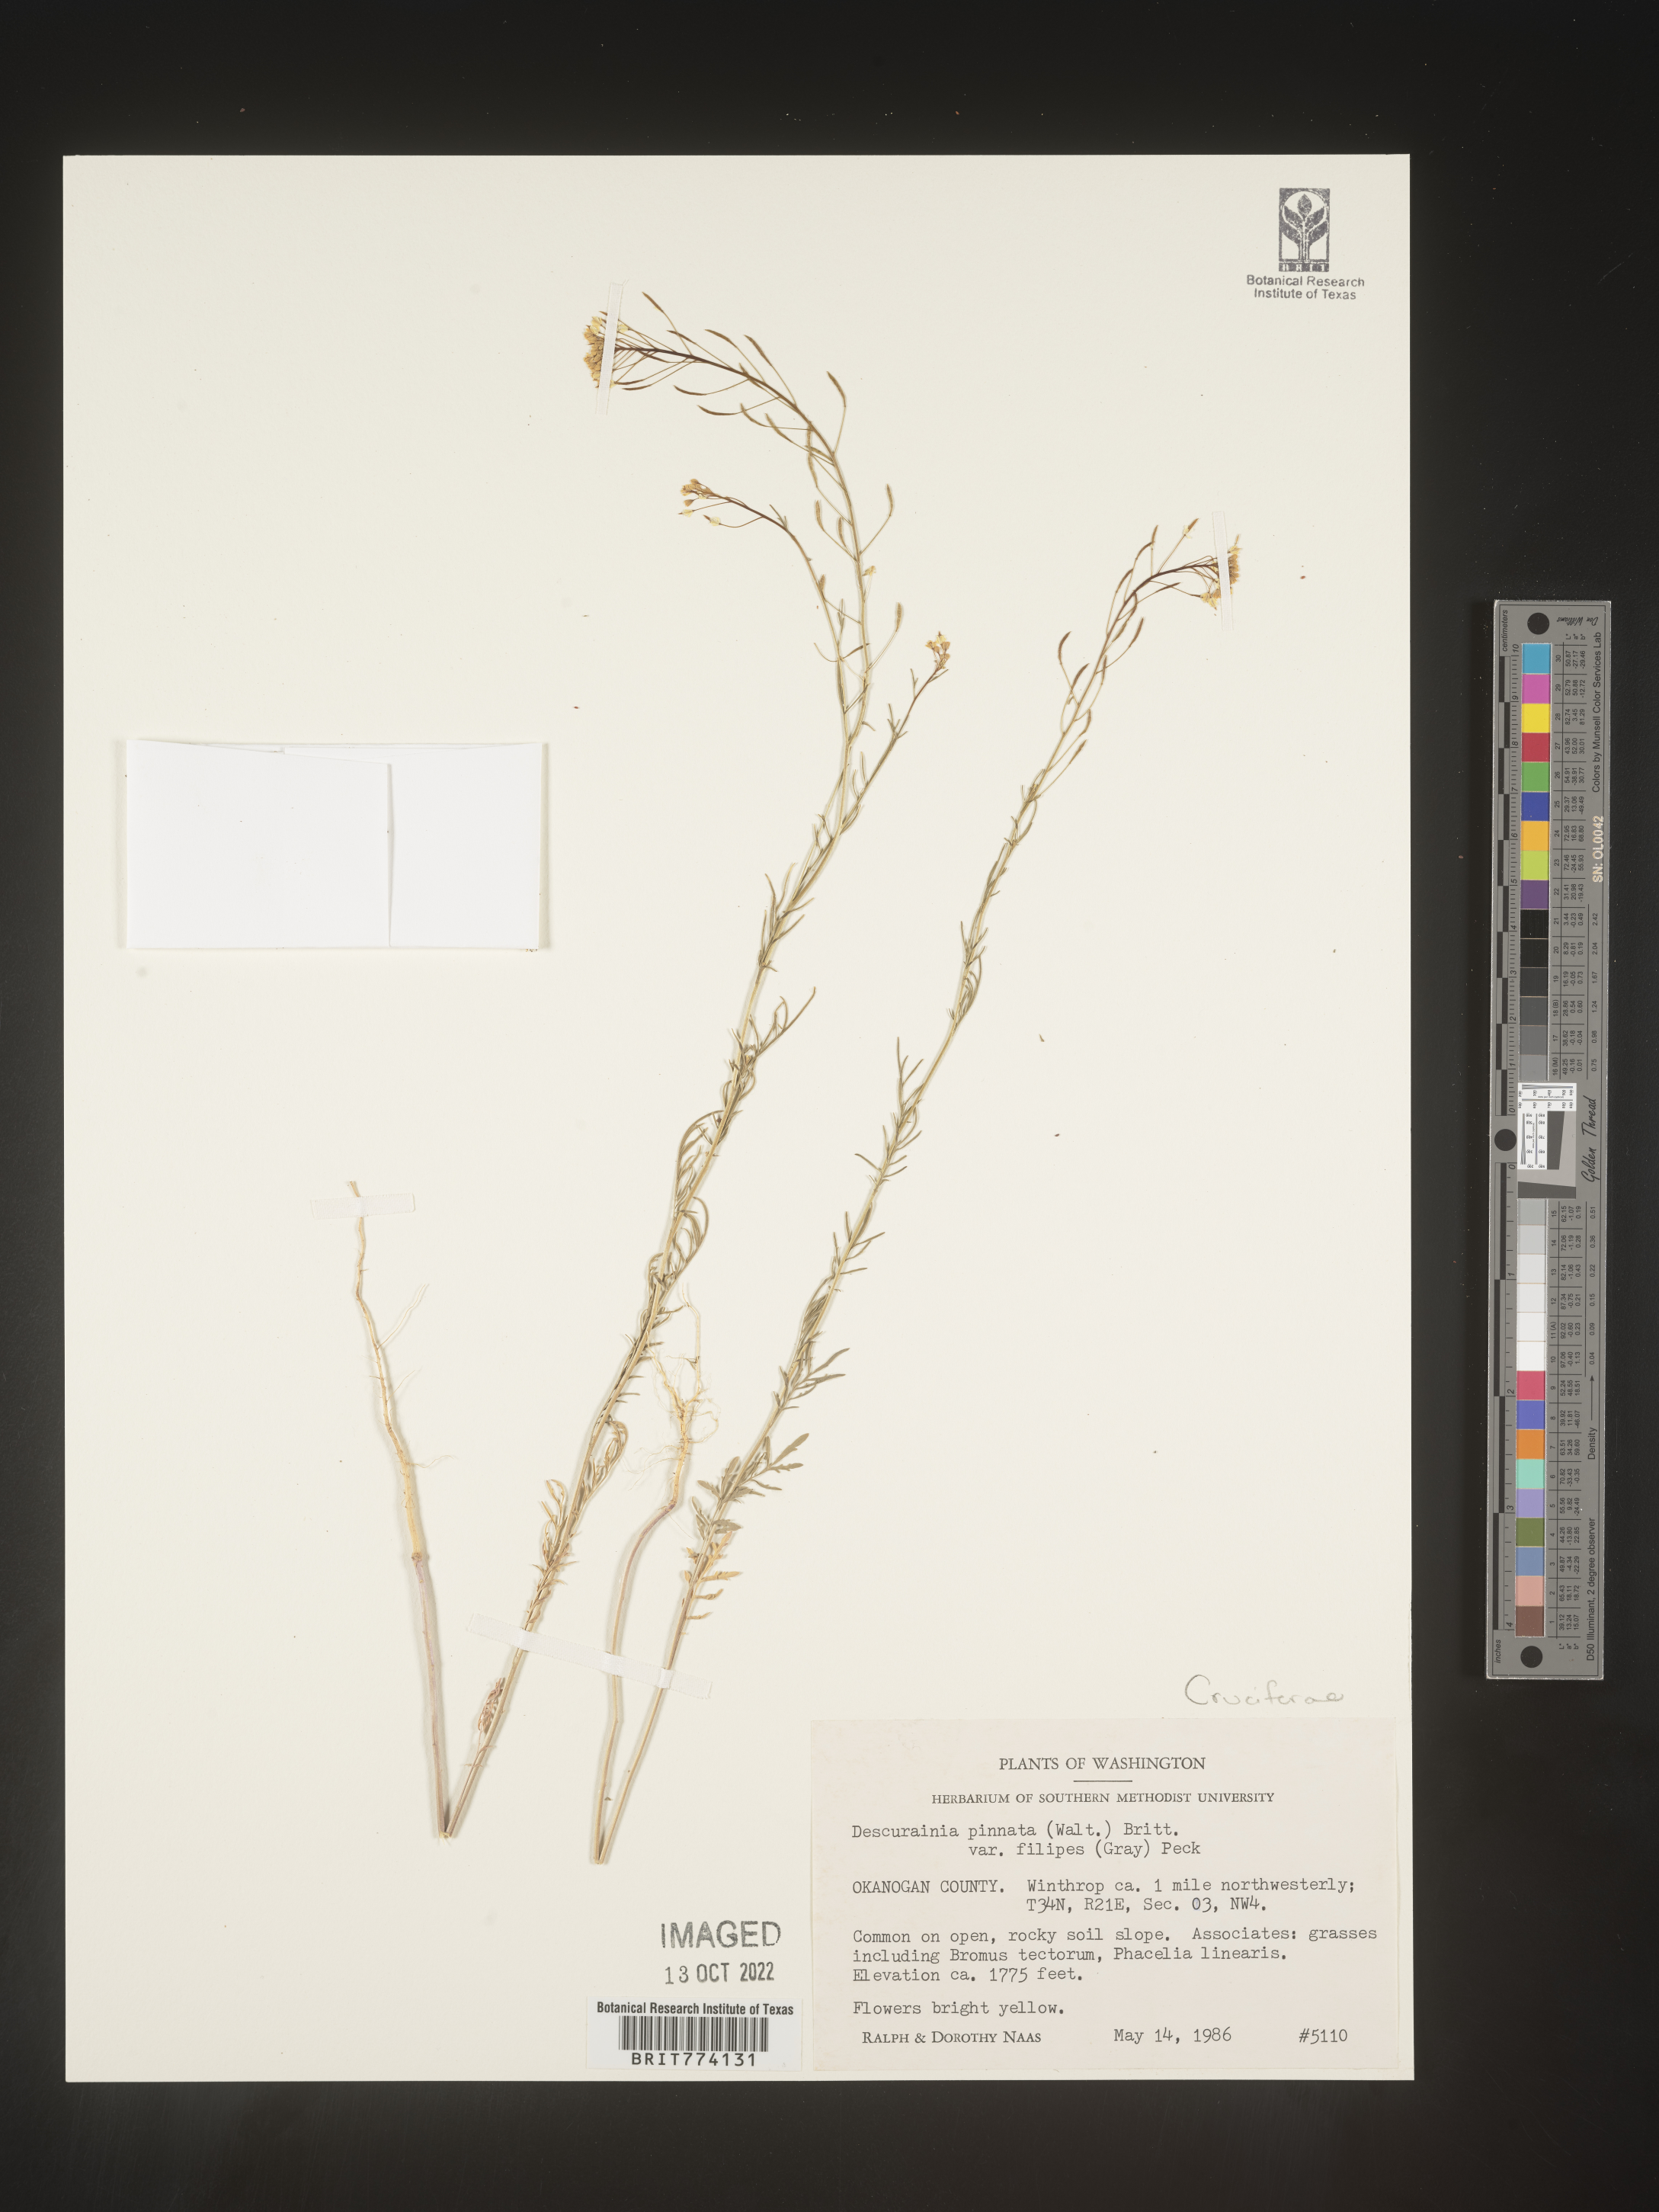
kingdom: Plantae
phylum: Tracheophyta
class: Magnoliopsida
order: Brassicales
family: Brassicaceae
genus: Descurainia
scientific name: Descurainia longipedicellata
